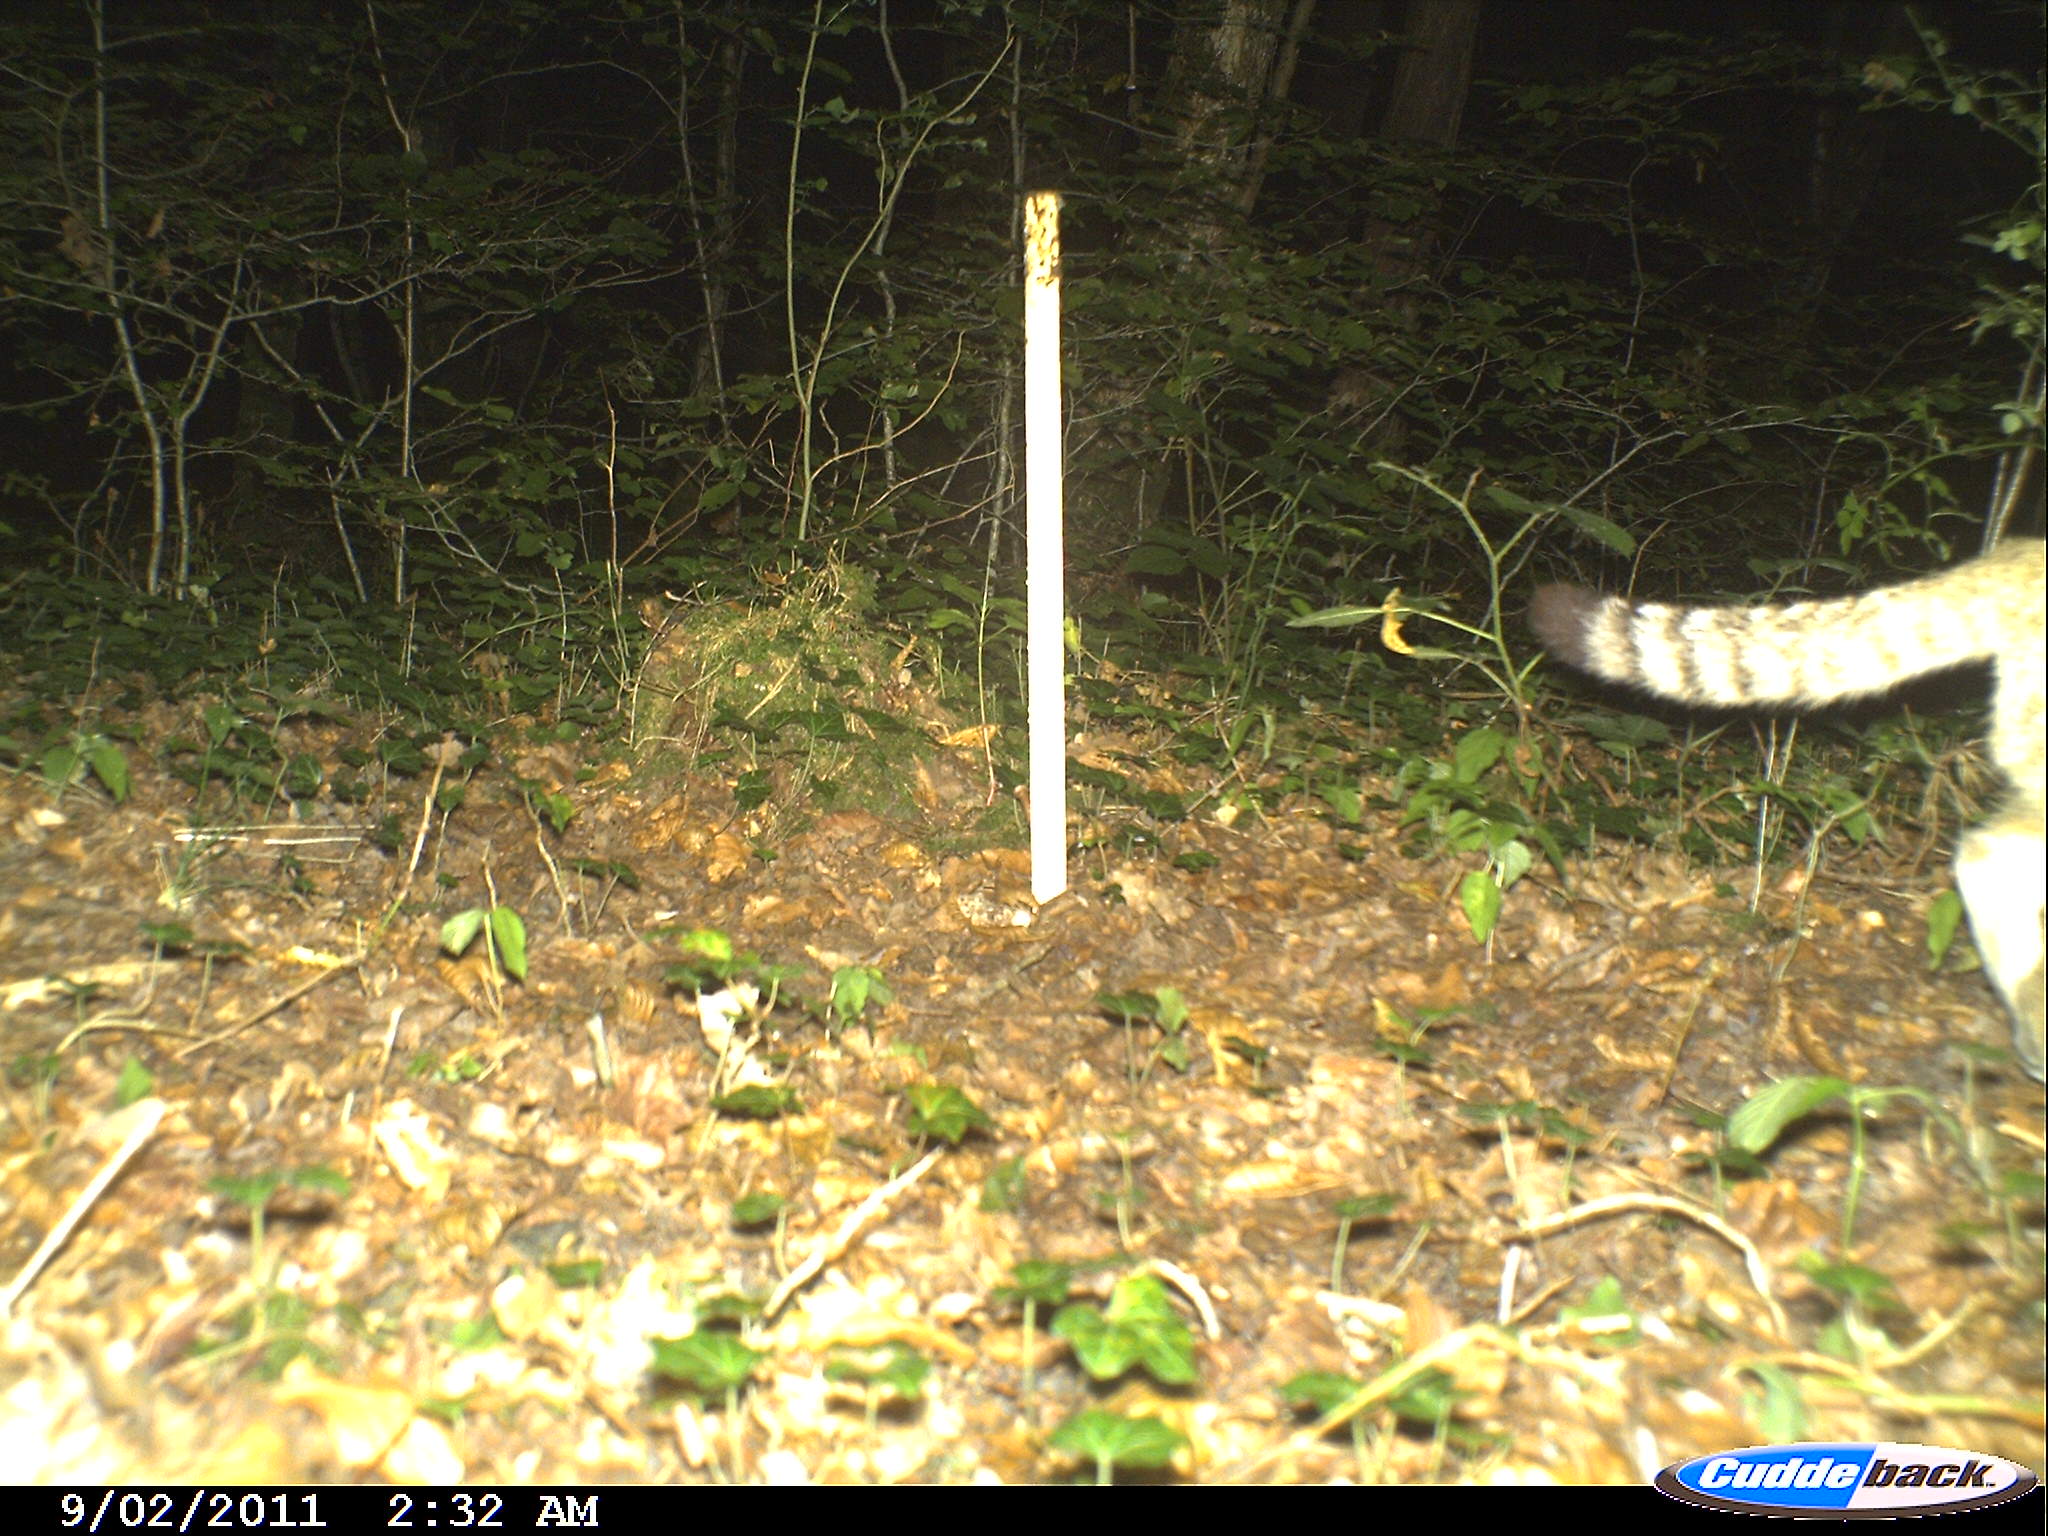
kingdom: Animalia
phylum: Chordata
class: Mammalia
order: Carnivora
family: Felidae
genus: Felis
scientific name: Felis silvestris
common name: Wildcat
